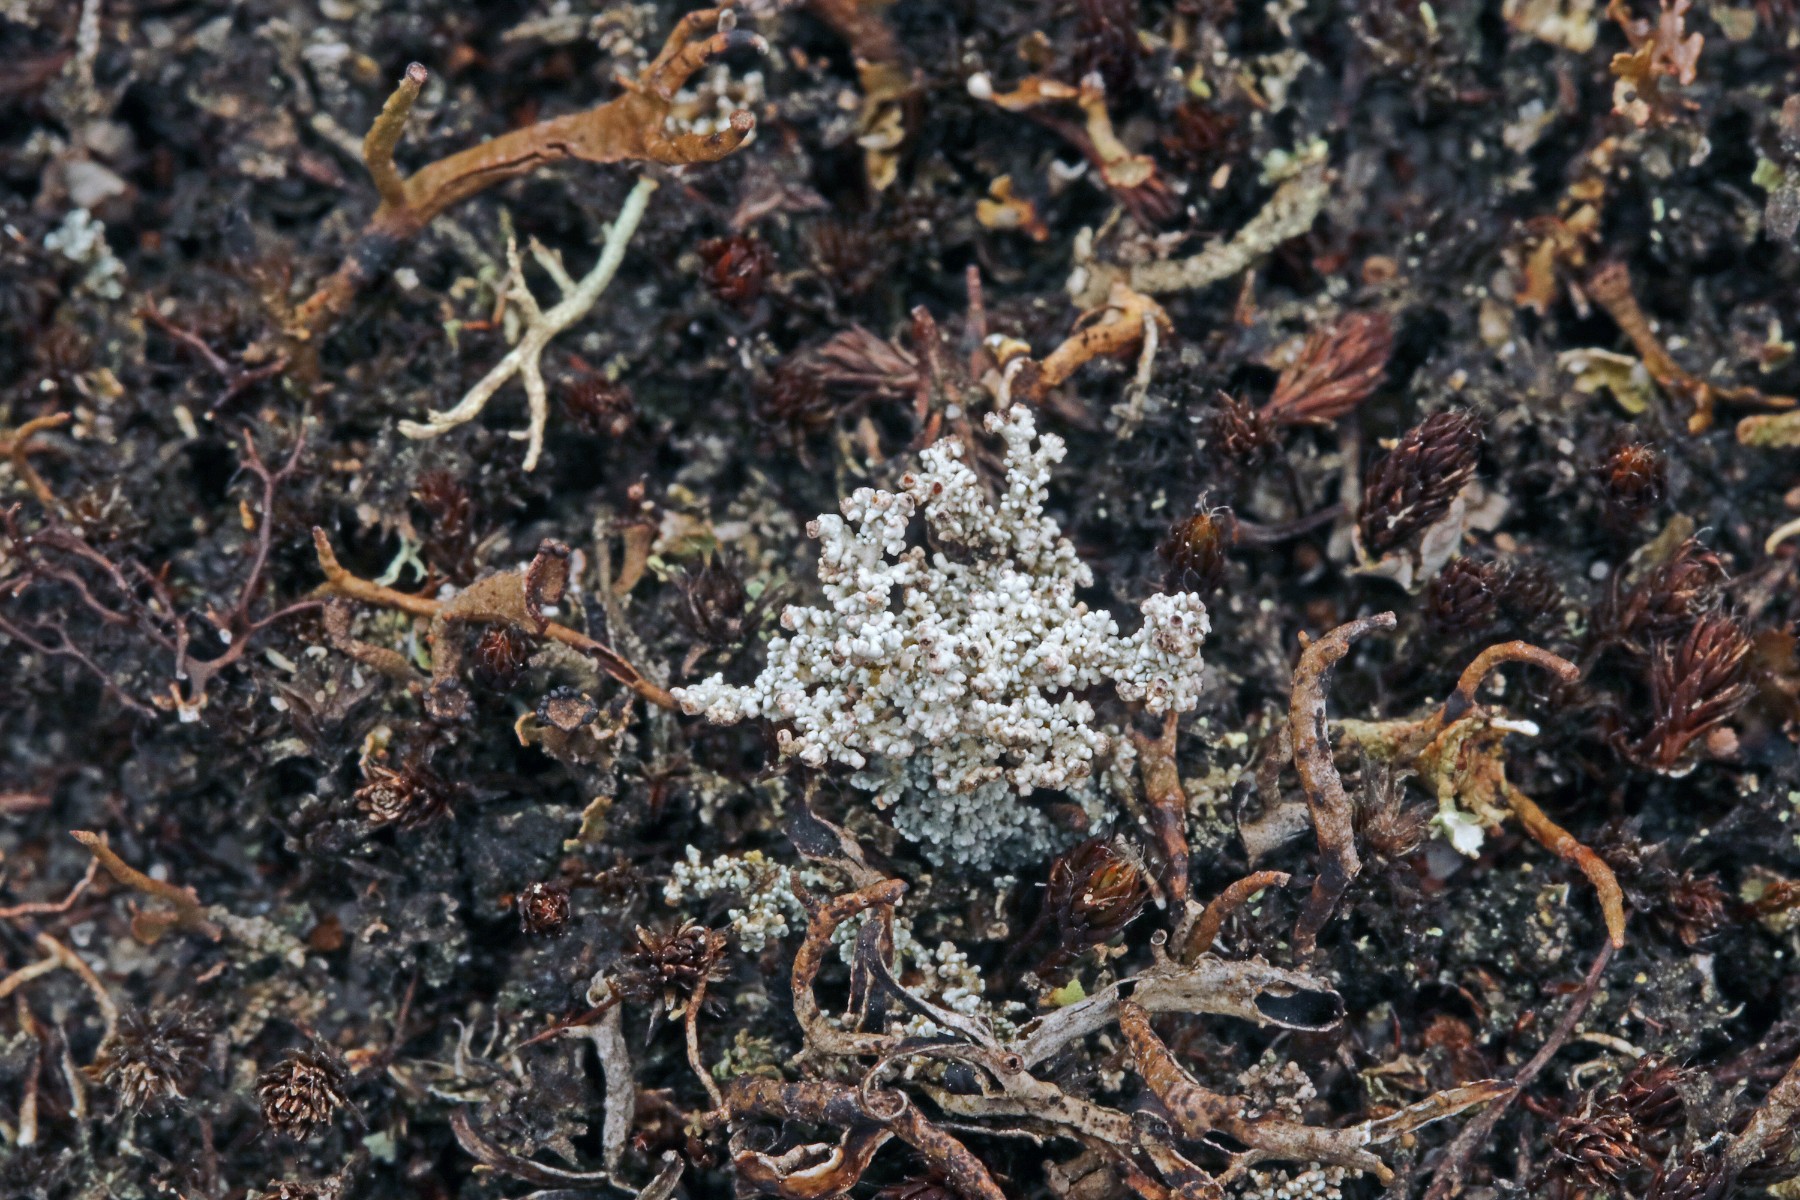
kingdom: Fungi
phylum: Ascomycota
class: Lecanoromycetes
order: Lecanorales
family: Stereocaulaceae
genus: Stereocaulon
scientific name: Stereocaulon saxatile
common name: klit-korallav
